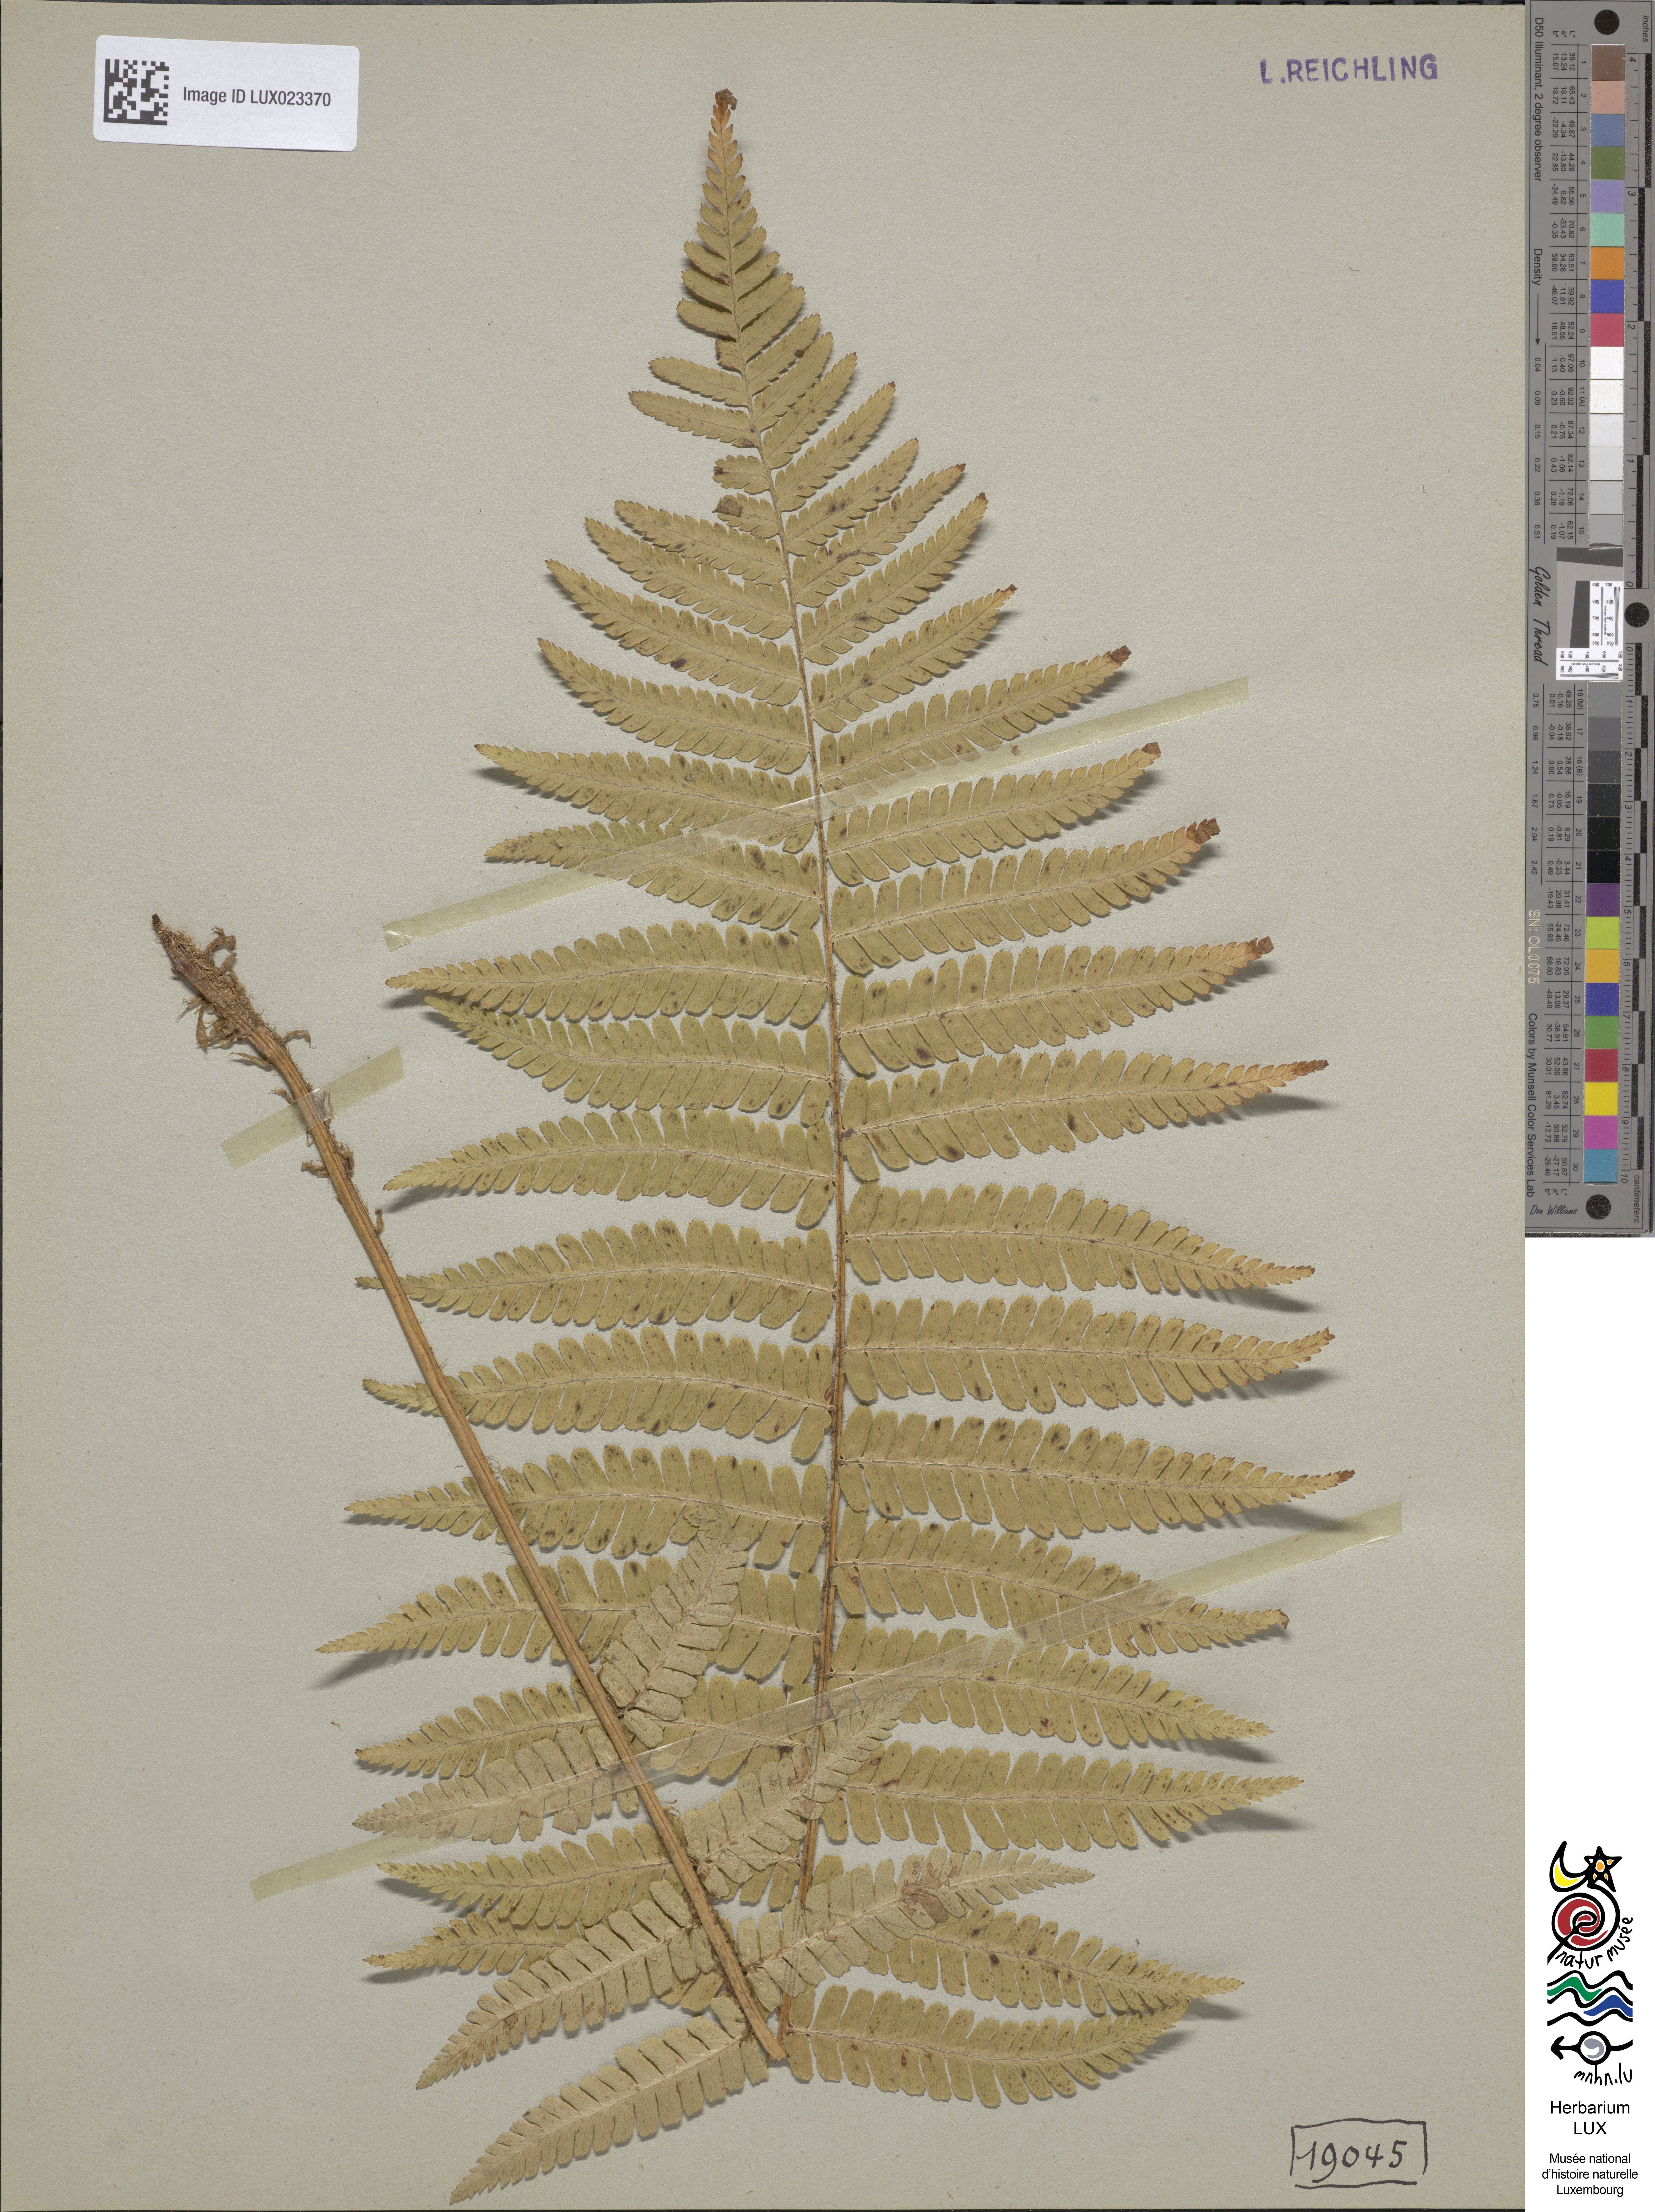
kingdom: Plantae
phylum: Tracheophyta
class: Polypodiopsida
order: Polypodiales
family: Dryopteridaceae
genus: Dryopteris
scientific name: Dryopteris borreri
